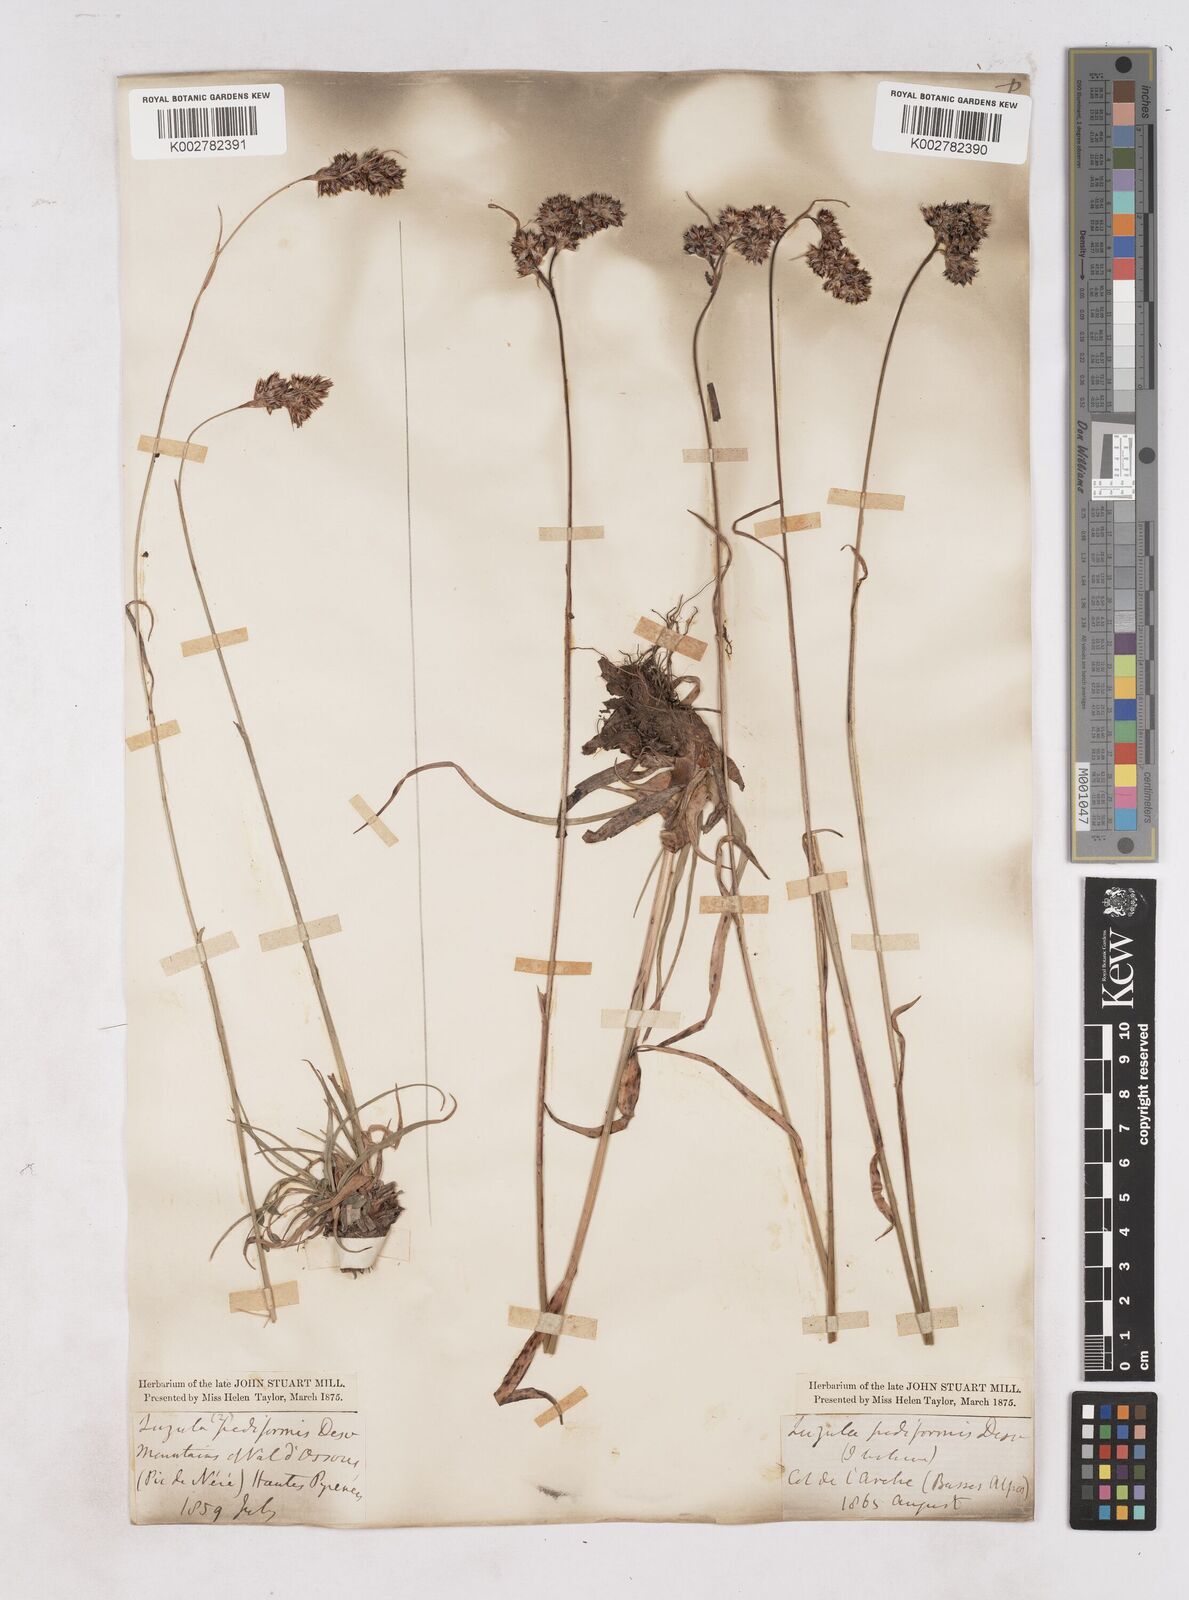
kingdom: Plantae
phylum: Tracheophyta
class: Liliopsida
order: Poales
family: Juncaceae
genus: Luzula
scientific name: Luzula pediformis
